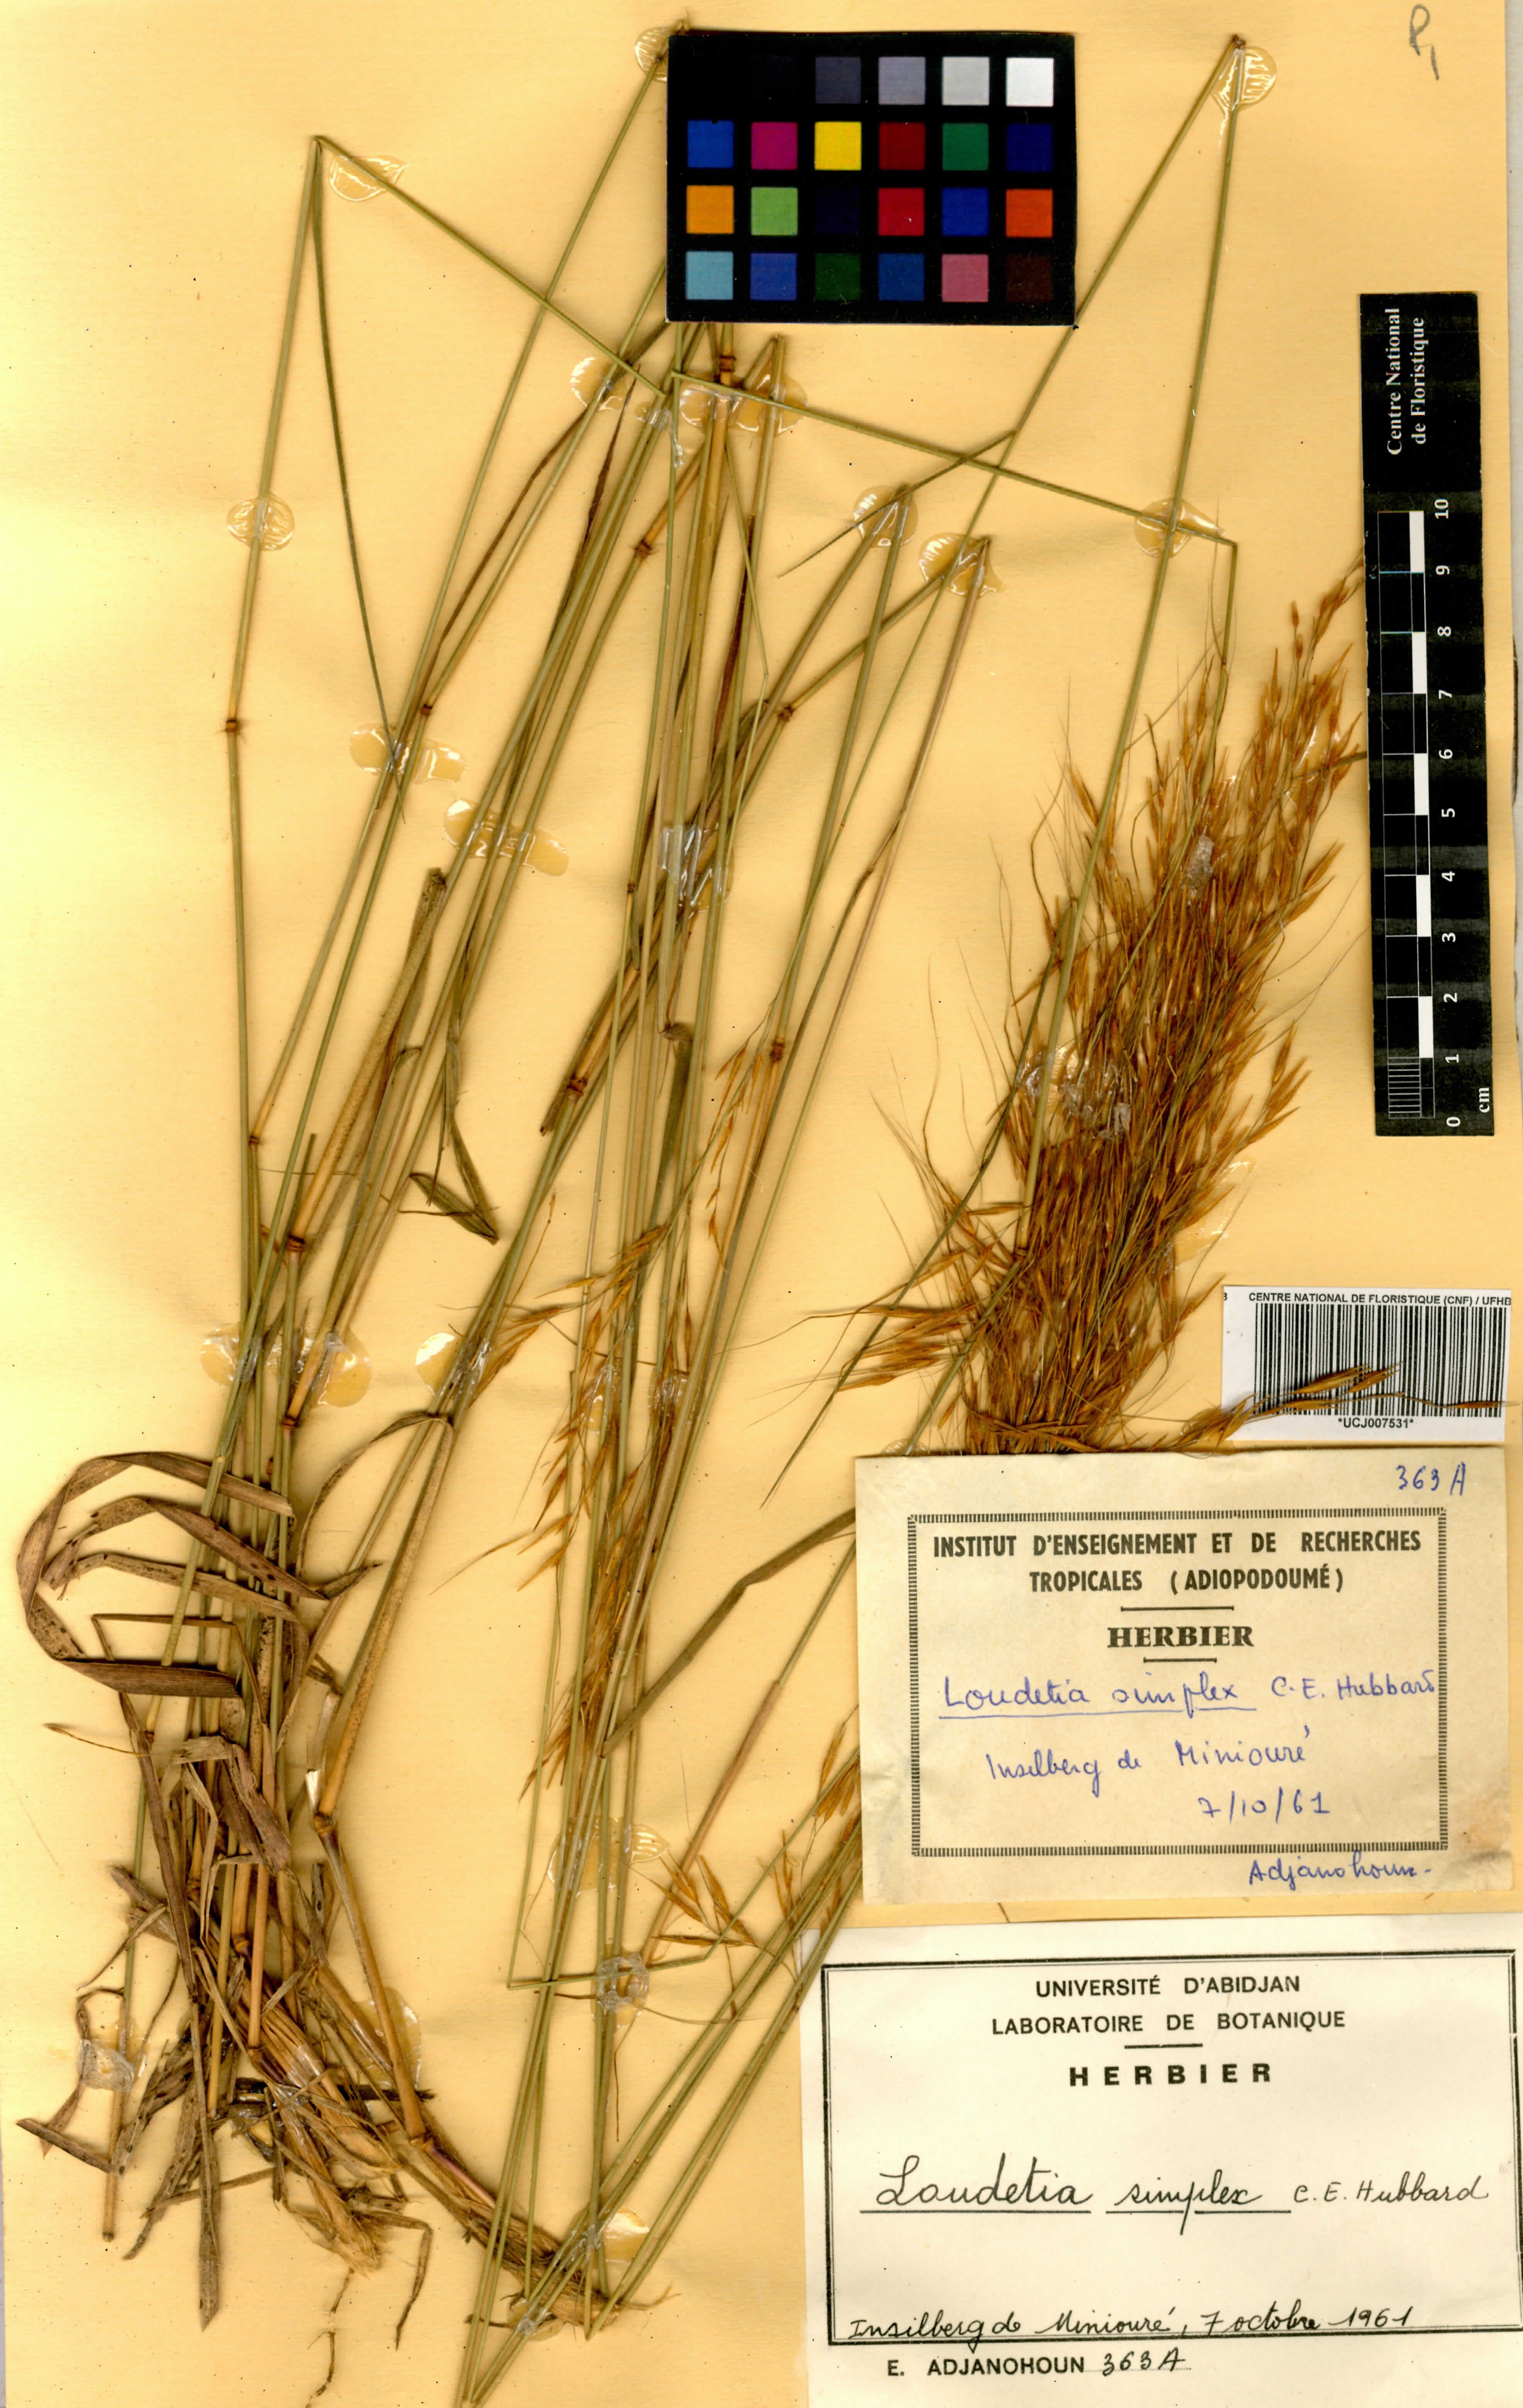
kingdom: Plantae
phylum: Tracheophyta
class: Liliopsida
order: Poales
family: Poaceae
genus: Loudetia
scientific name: Loudetia simplex
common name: Common russet grass
